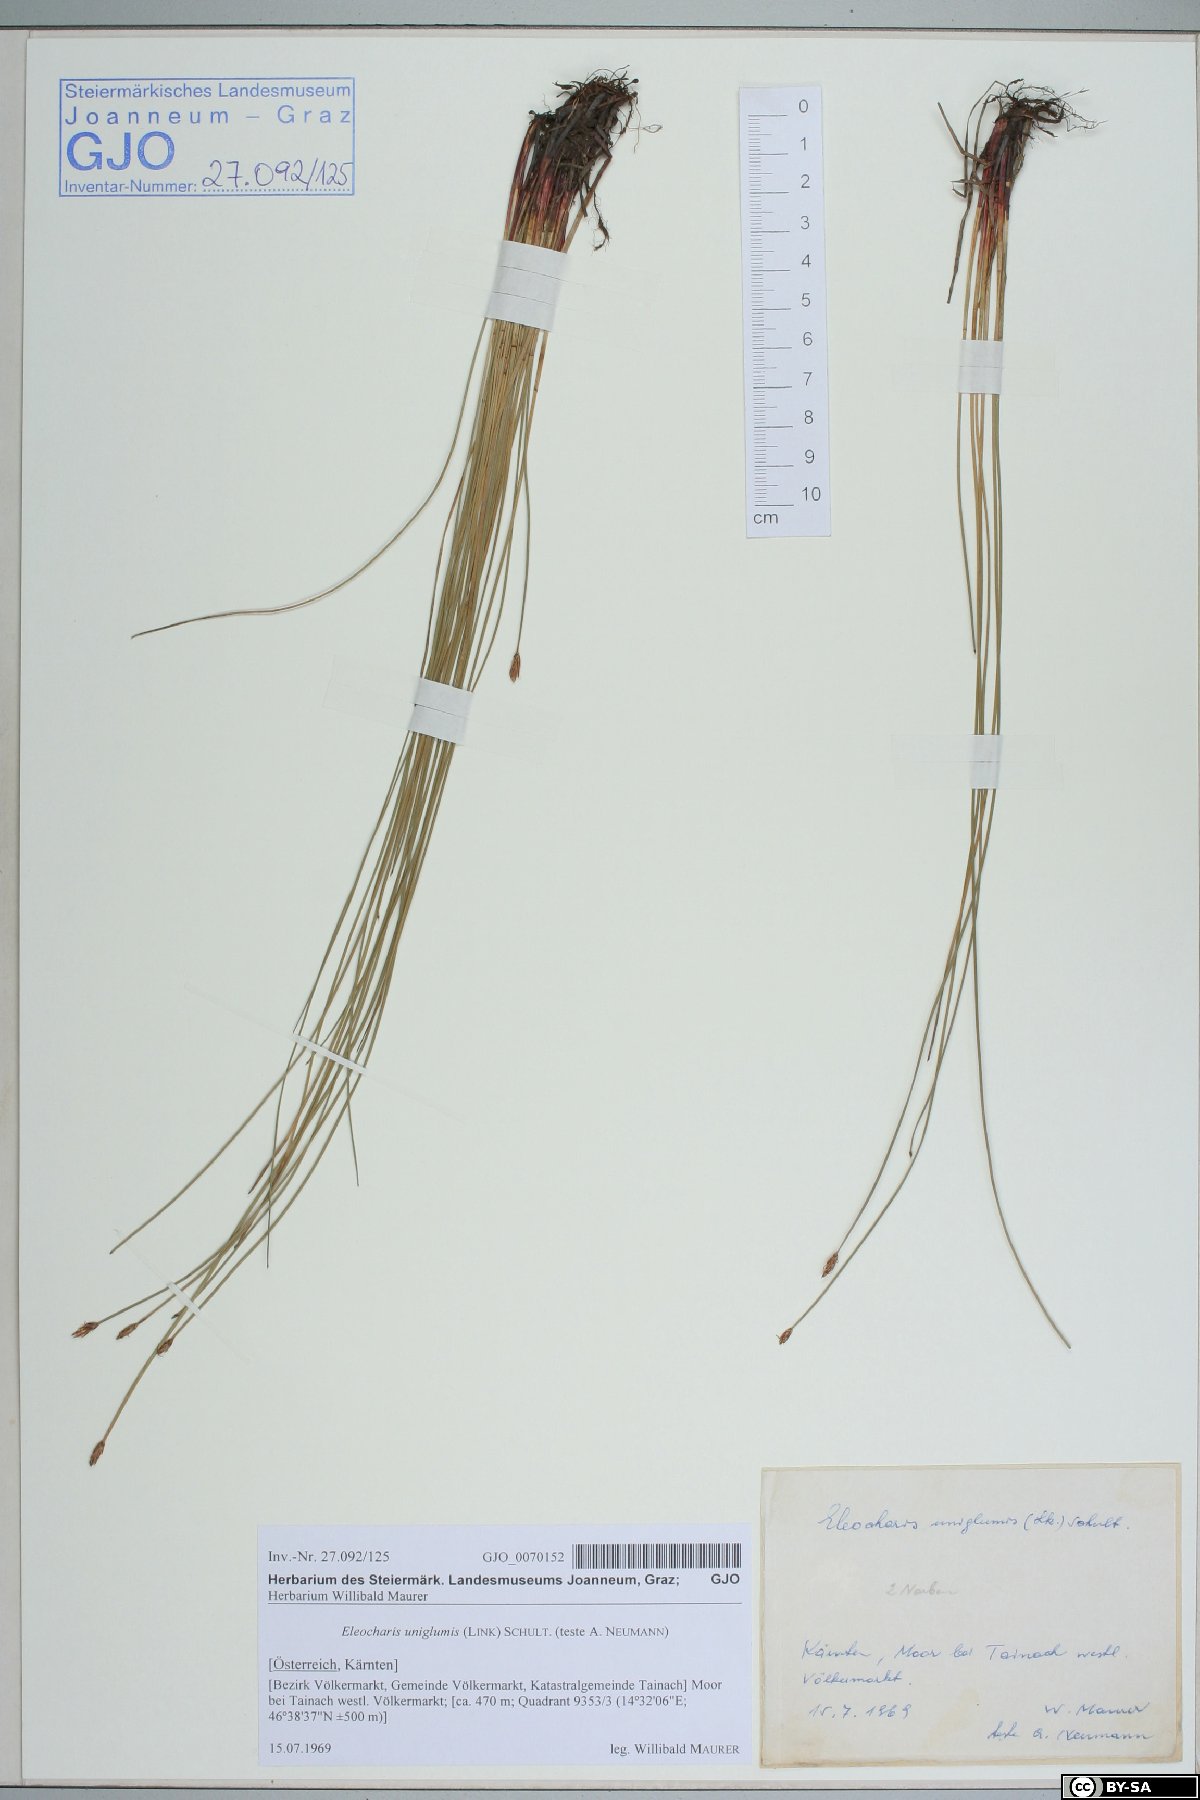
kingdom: Plantae
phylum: Tracheophyta
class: Liliopsida
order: Poales
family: Cyperaceae
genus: Eleocharis
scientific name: Eleocharis uniglumis
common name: Slender spike-rush
